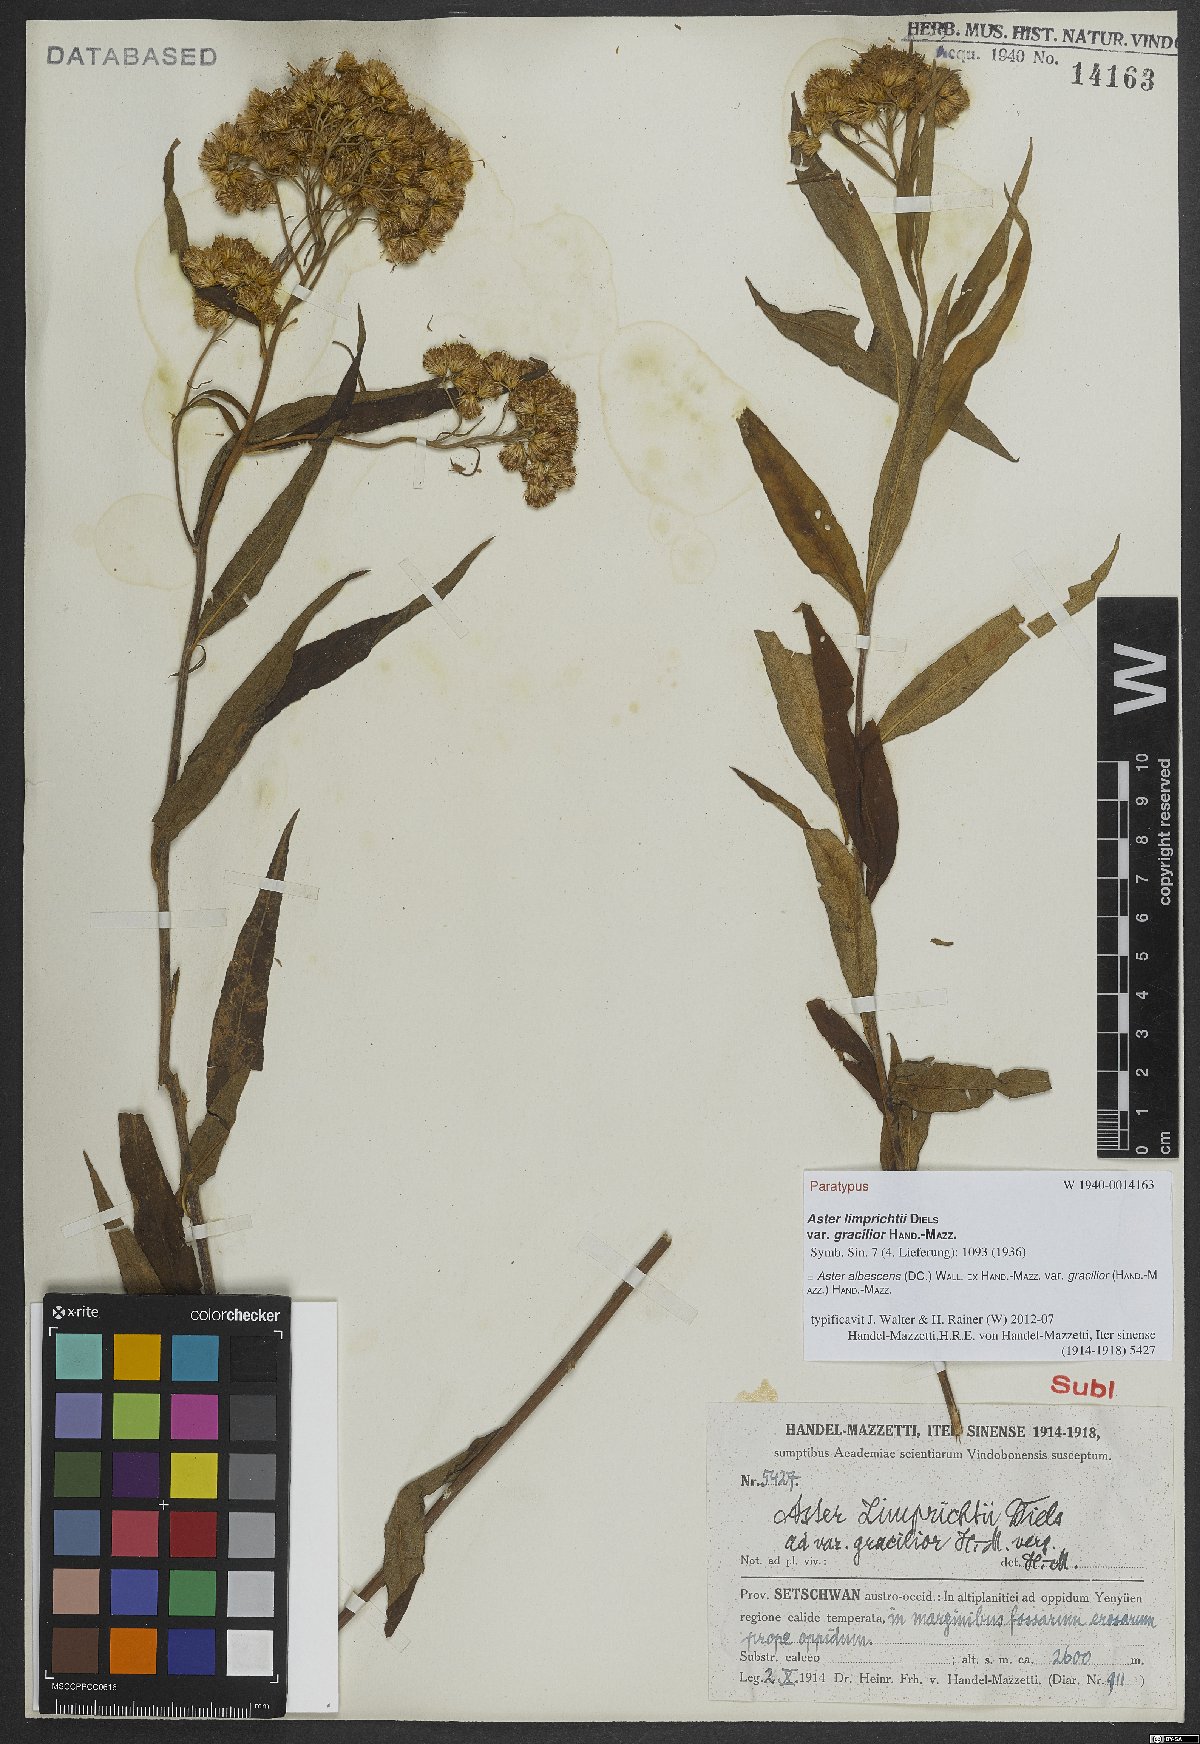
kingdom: Plantae
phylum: Tracheophyta
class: Magnoliopsida
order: Asterales
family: Asteraceae
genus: Sinosidus
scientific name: Sinosidus albescens
